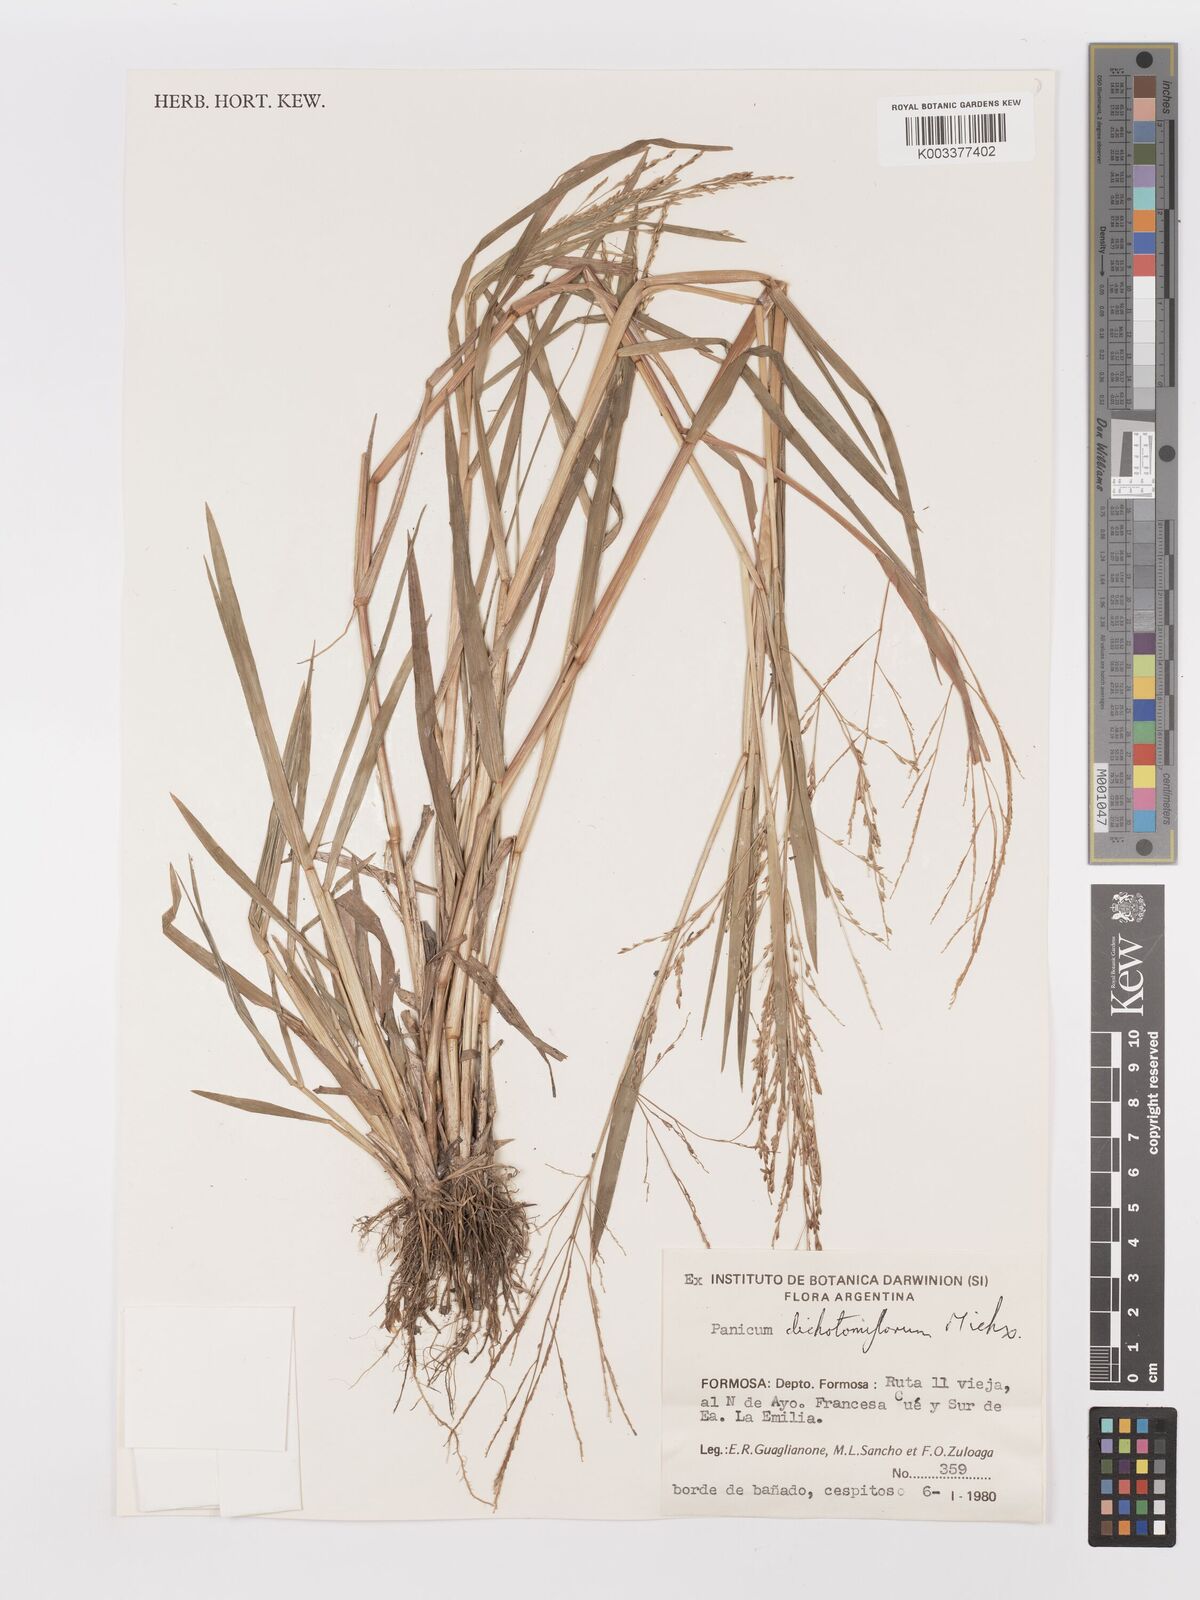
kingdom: Plantae
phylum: Tracheophyta
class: Liliopsida
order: Poales
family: Poaceae
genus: Panicum
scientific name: Panicum dichotomiflorum
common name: Autumn millet
